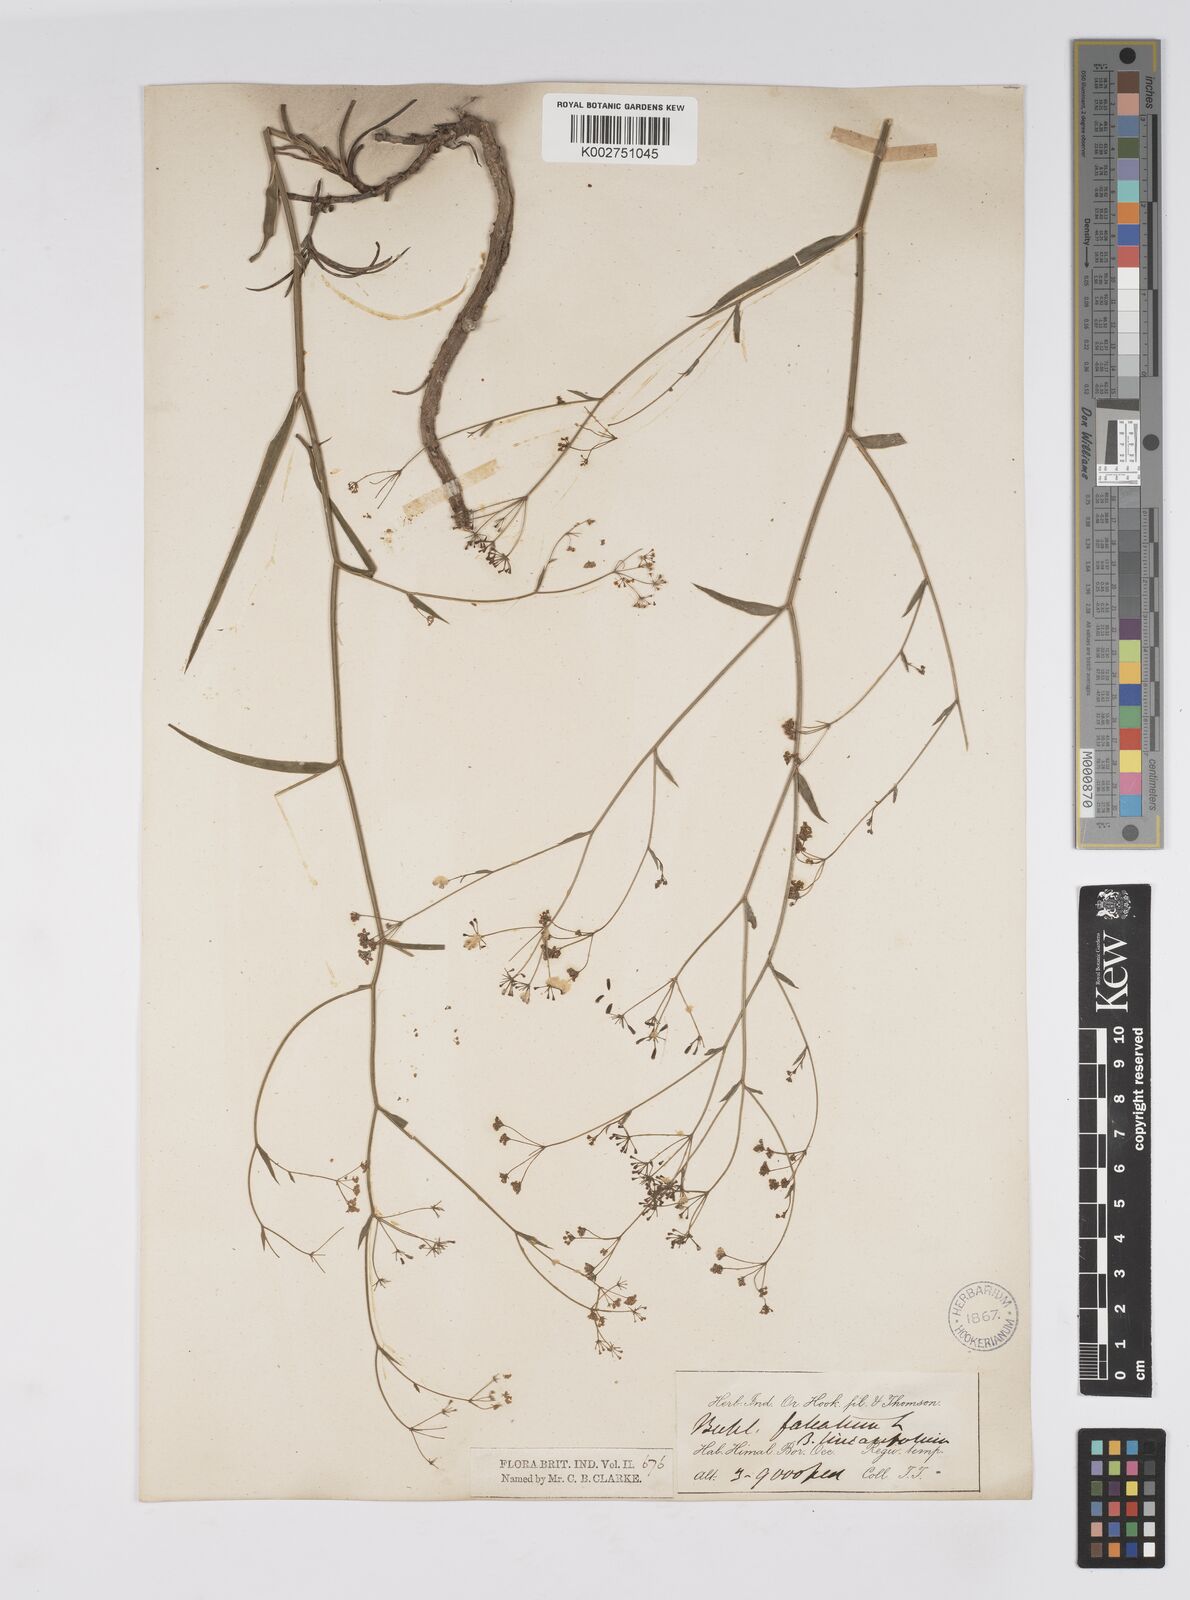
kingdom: Plantae
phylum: Tracheophyta
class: Magnoliopsida
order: Apiales
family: Apiaceae
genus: Bupleurum
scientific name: Bupleurum exaltatum
